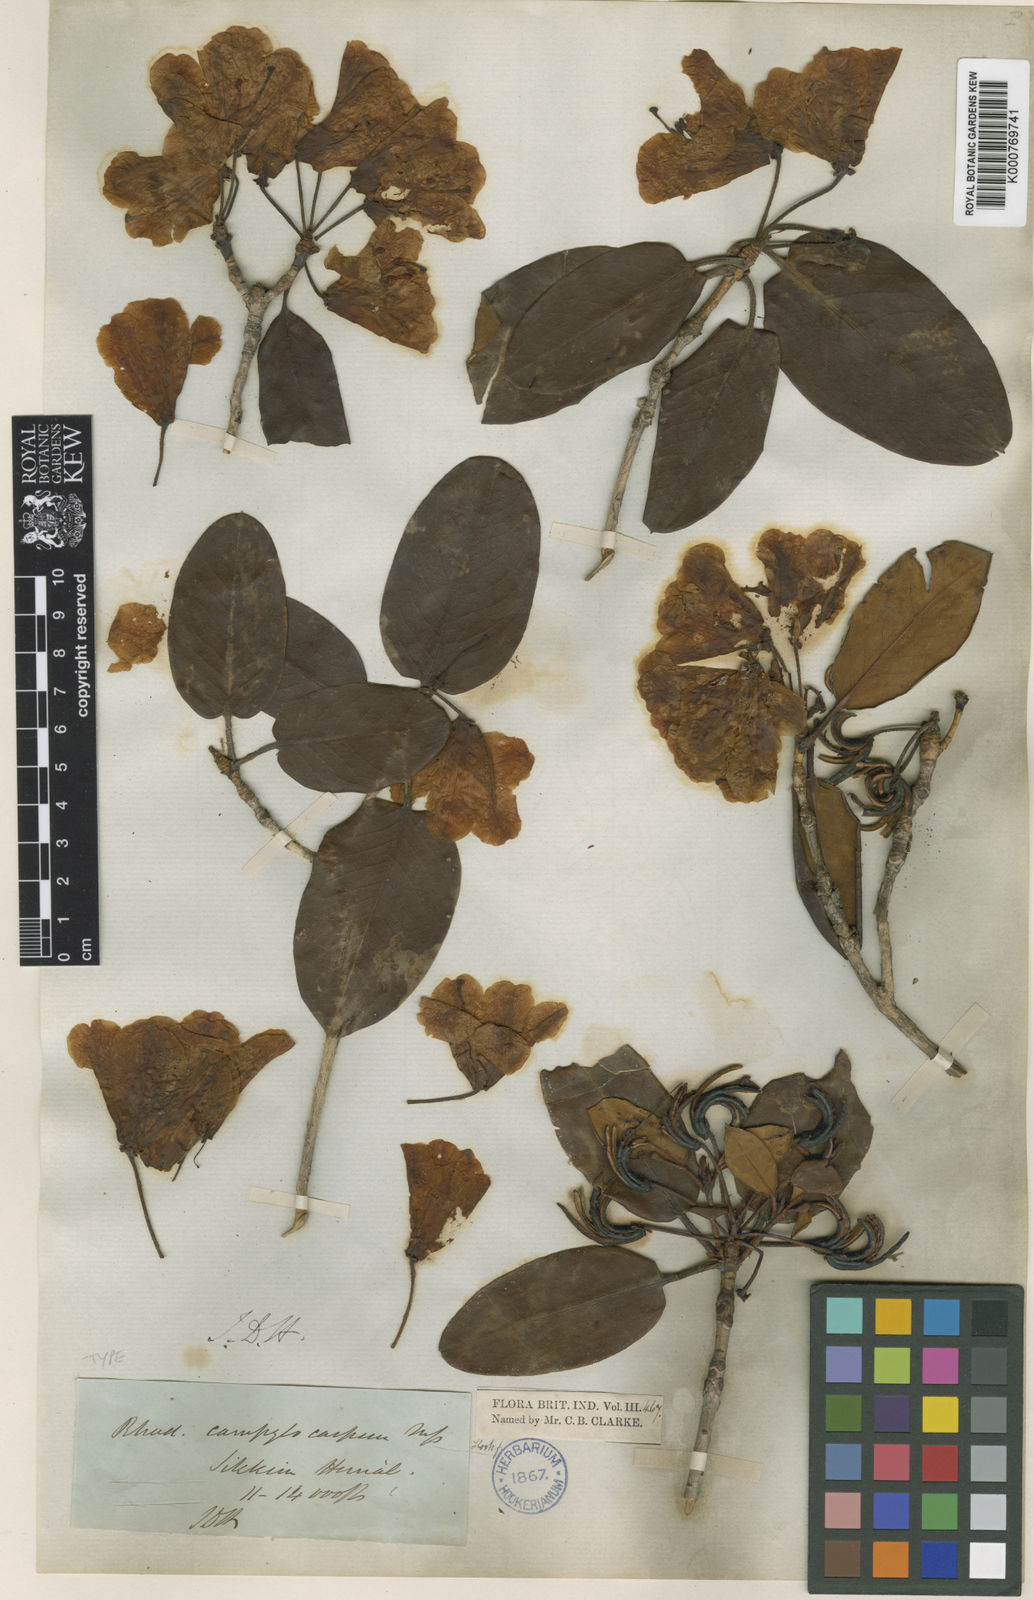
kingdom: Plantae
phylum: Tracheophyta
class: Magnoliopsida
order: Ericales
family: Ericaceae
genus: Rhododendron
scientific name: Rhododendron campylocarpum
